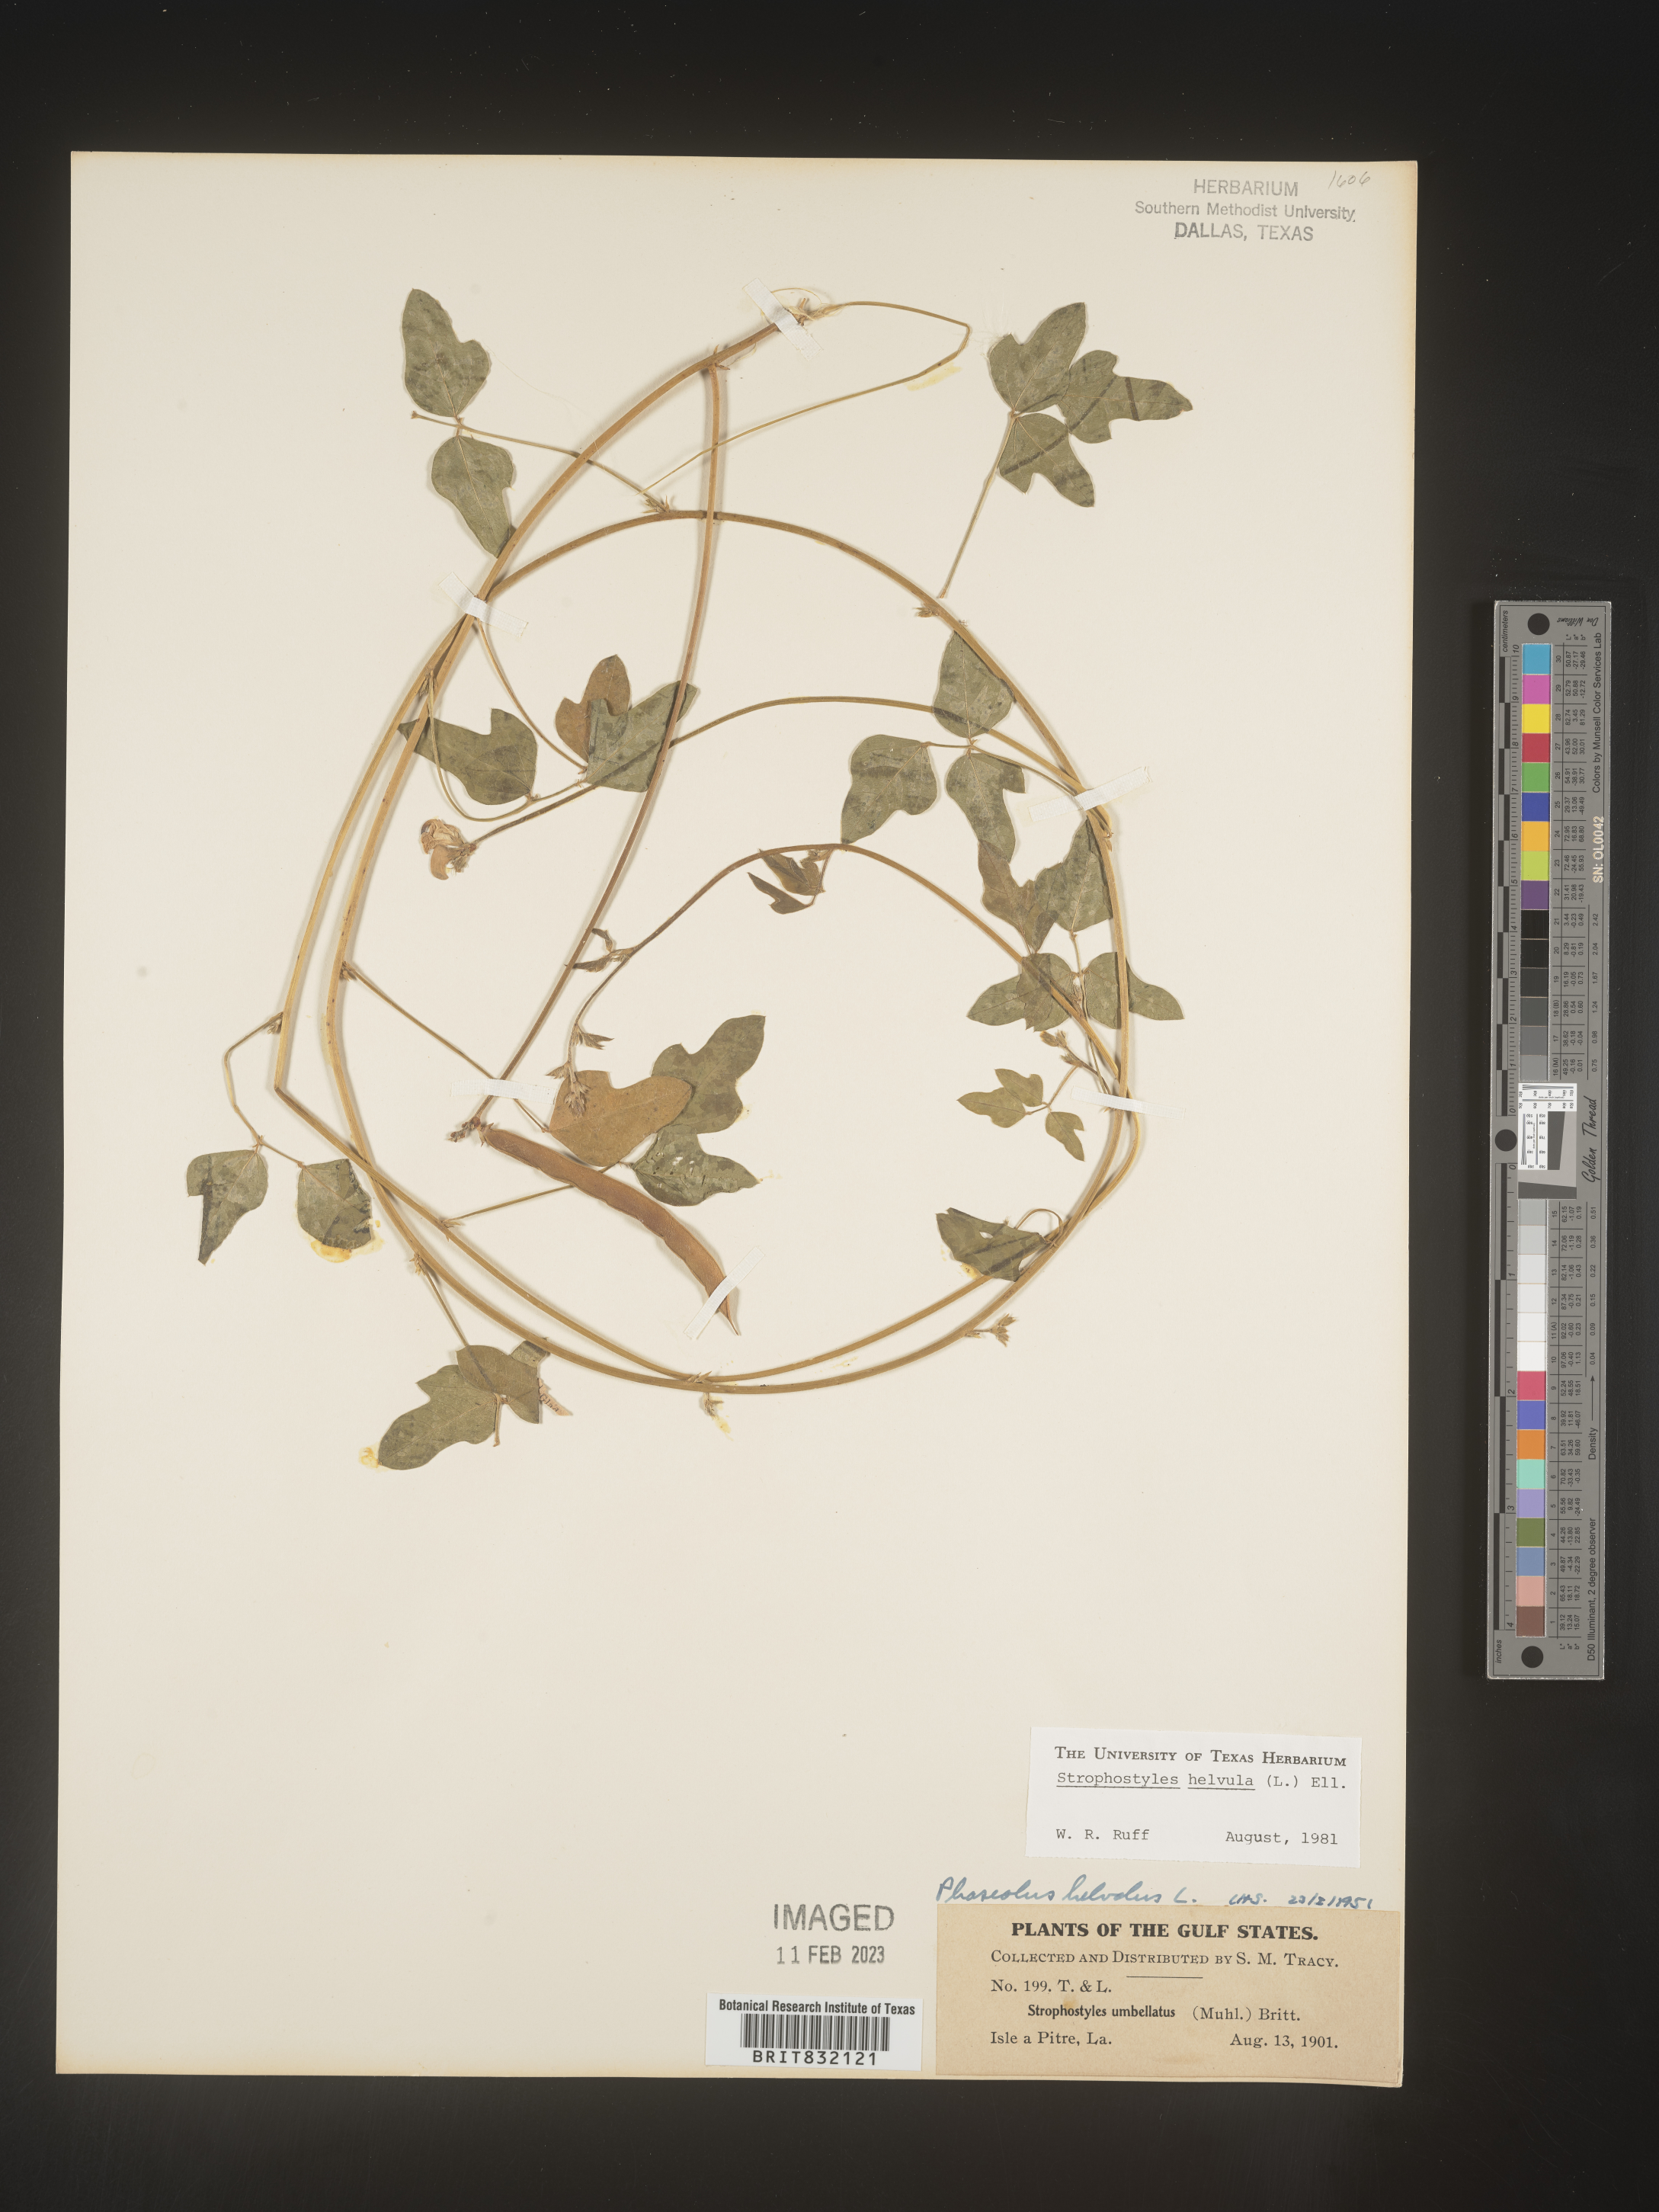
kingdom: Plantae
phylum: Tracheophyta
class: Magnoliopsida
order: Fabales
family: Fabaceae
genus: Strophostyles
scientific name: Strophostyles helvola
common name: Trailing wild bean
